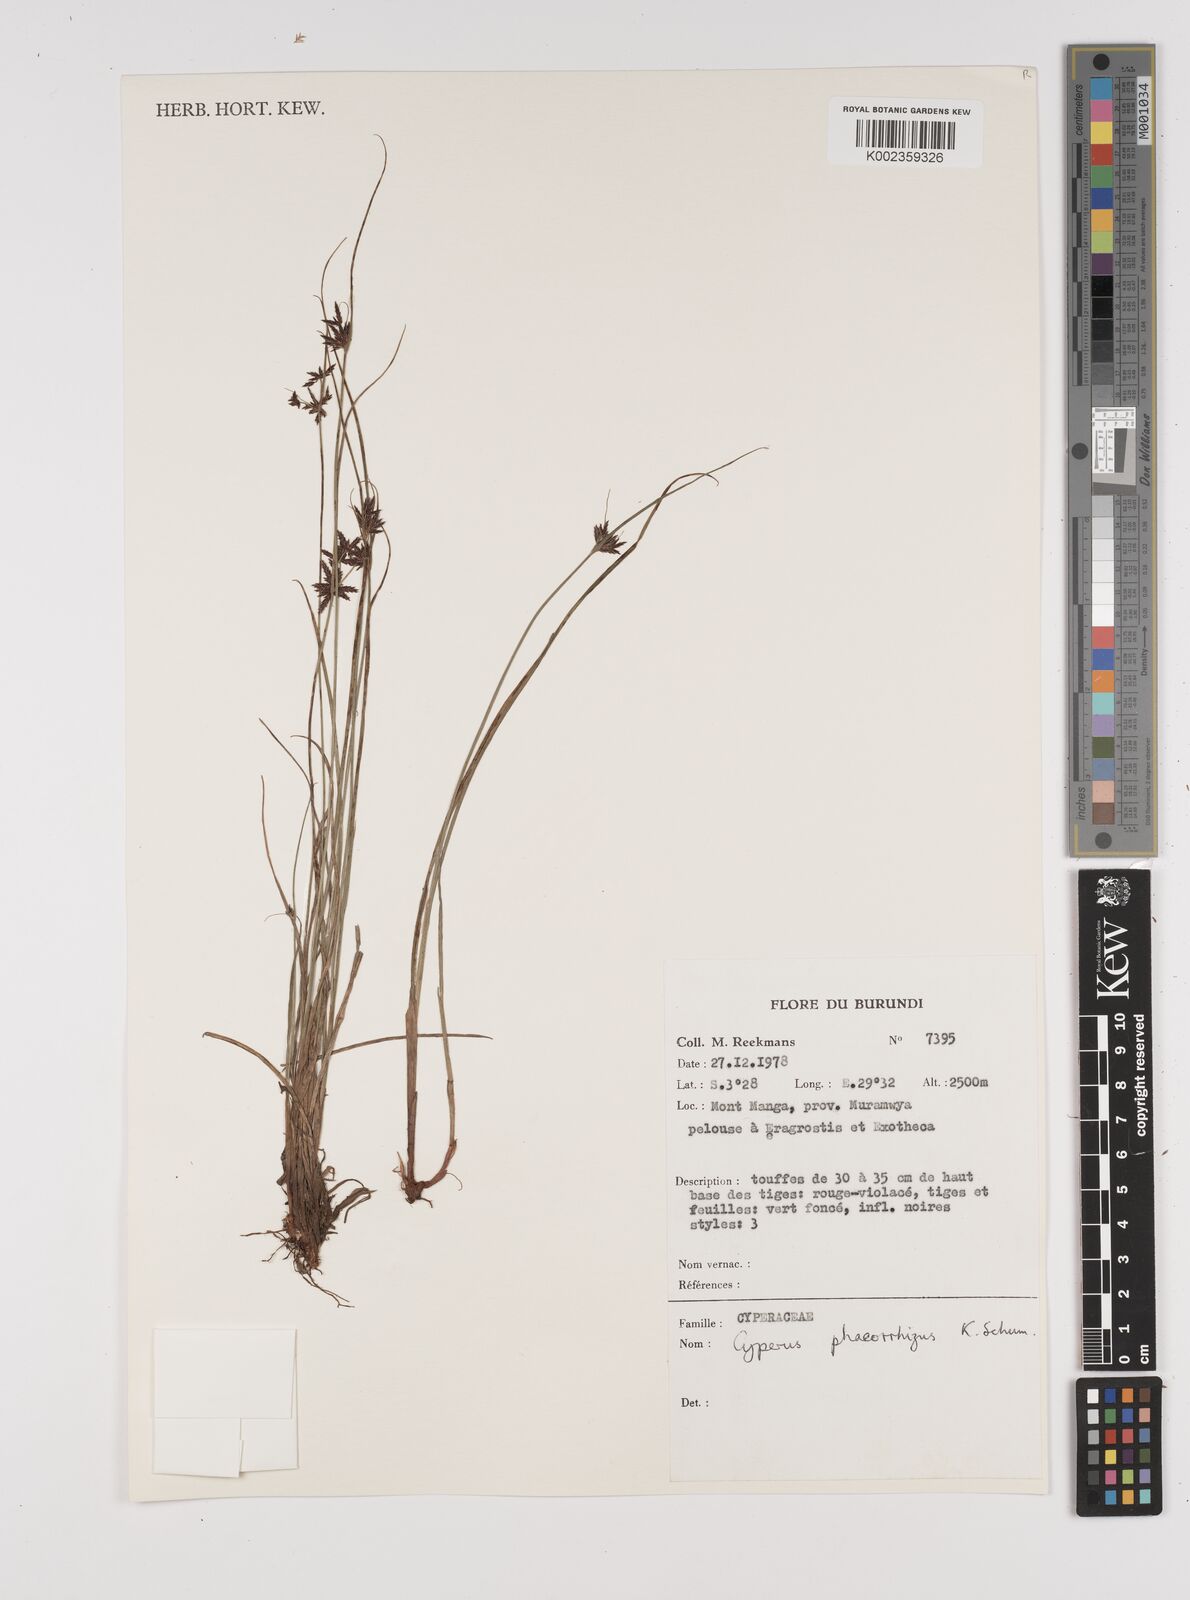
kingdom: Plantae
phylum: Tracheophyta
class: Liliopsida
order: Poales
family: Cyperaceae
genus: Cyperus
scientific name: Cyperus haspan
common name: Haspan flatsedge
